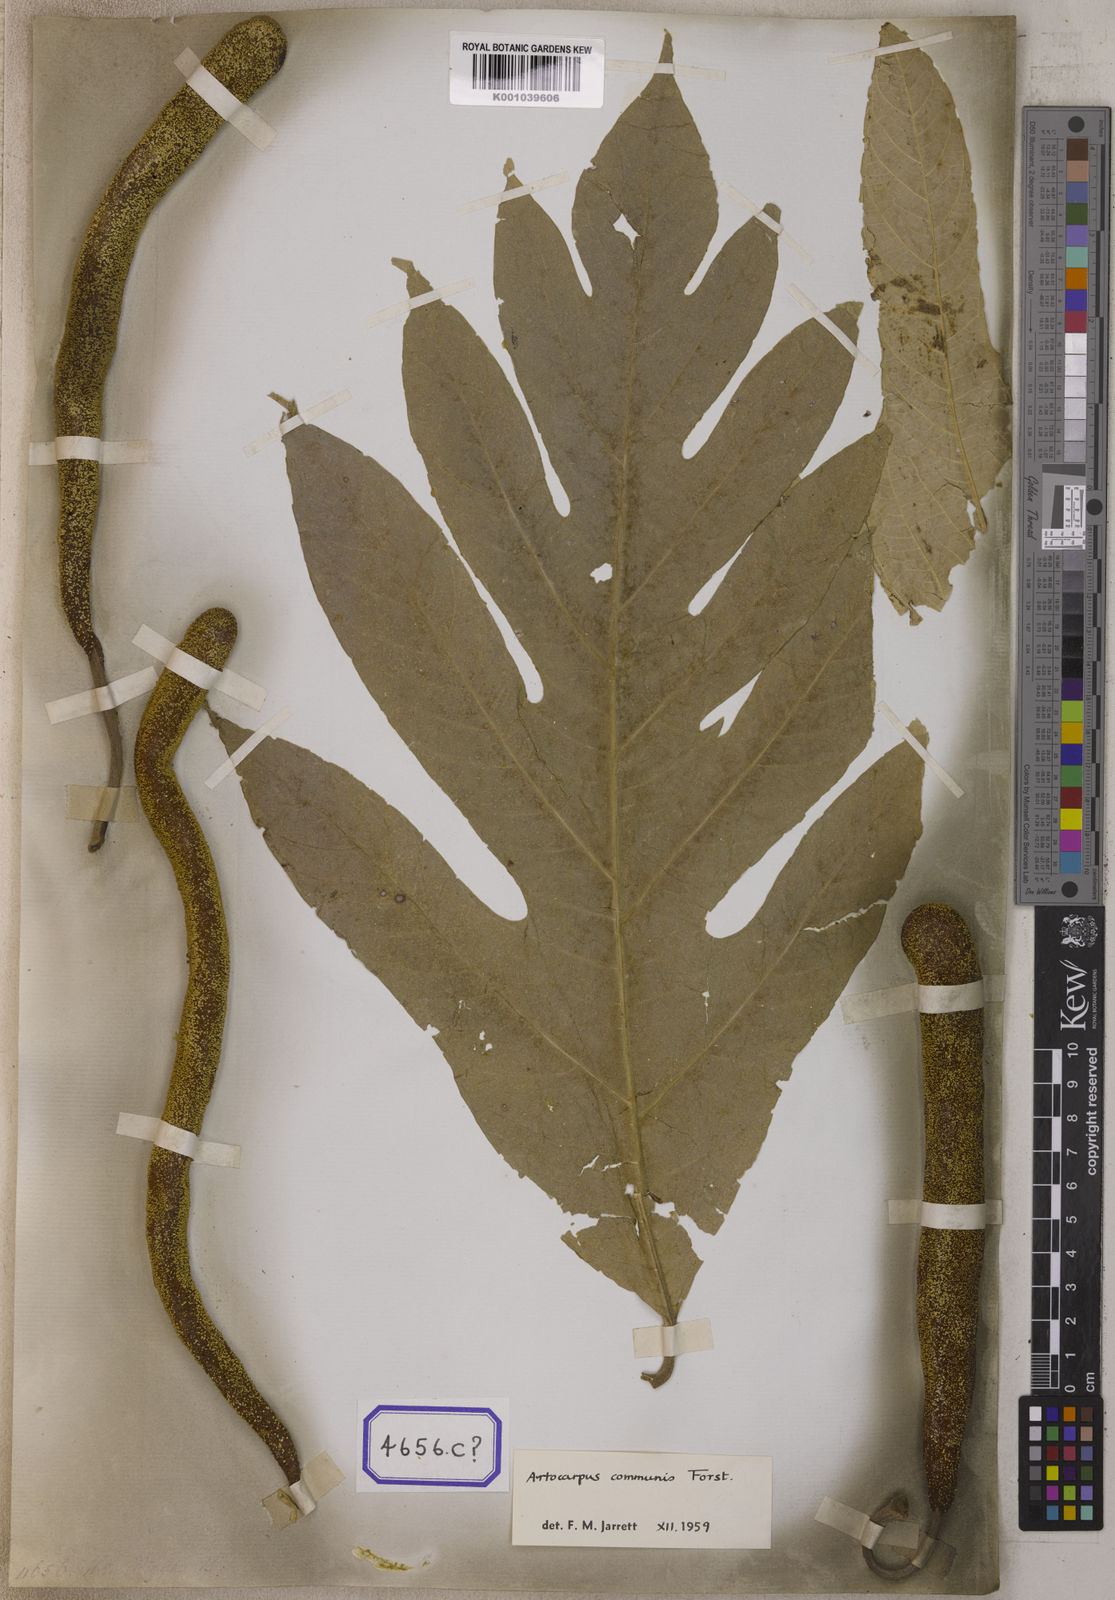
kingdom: Plantae
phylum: Tracheophyta
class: Magnoliopsida
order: Rosales
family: Moraceae
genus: Artocarpus
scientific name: Artocarpus hirsutus
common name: Hairy bread-fruit tree
